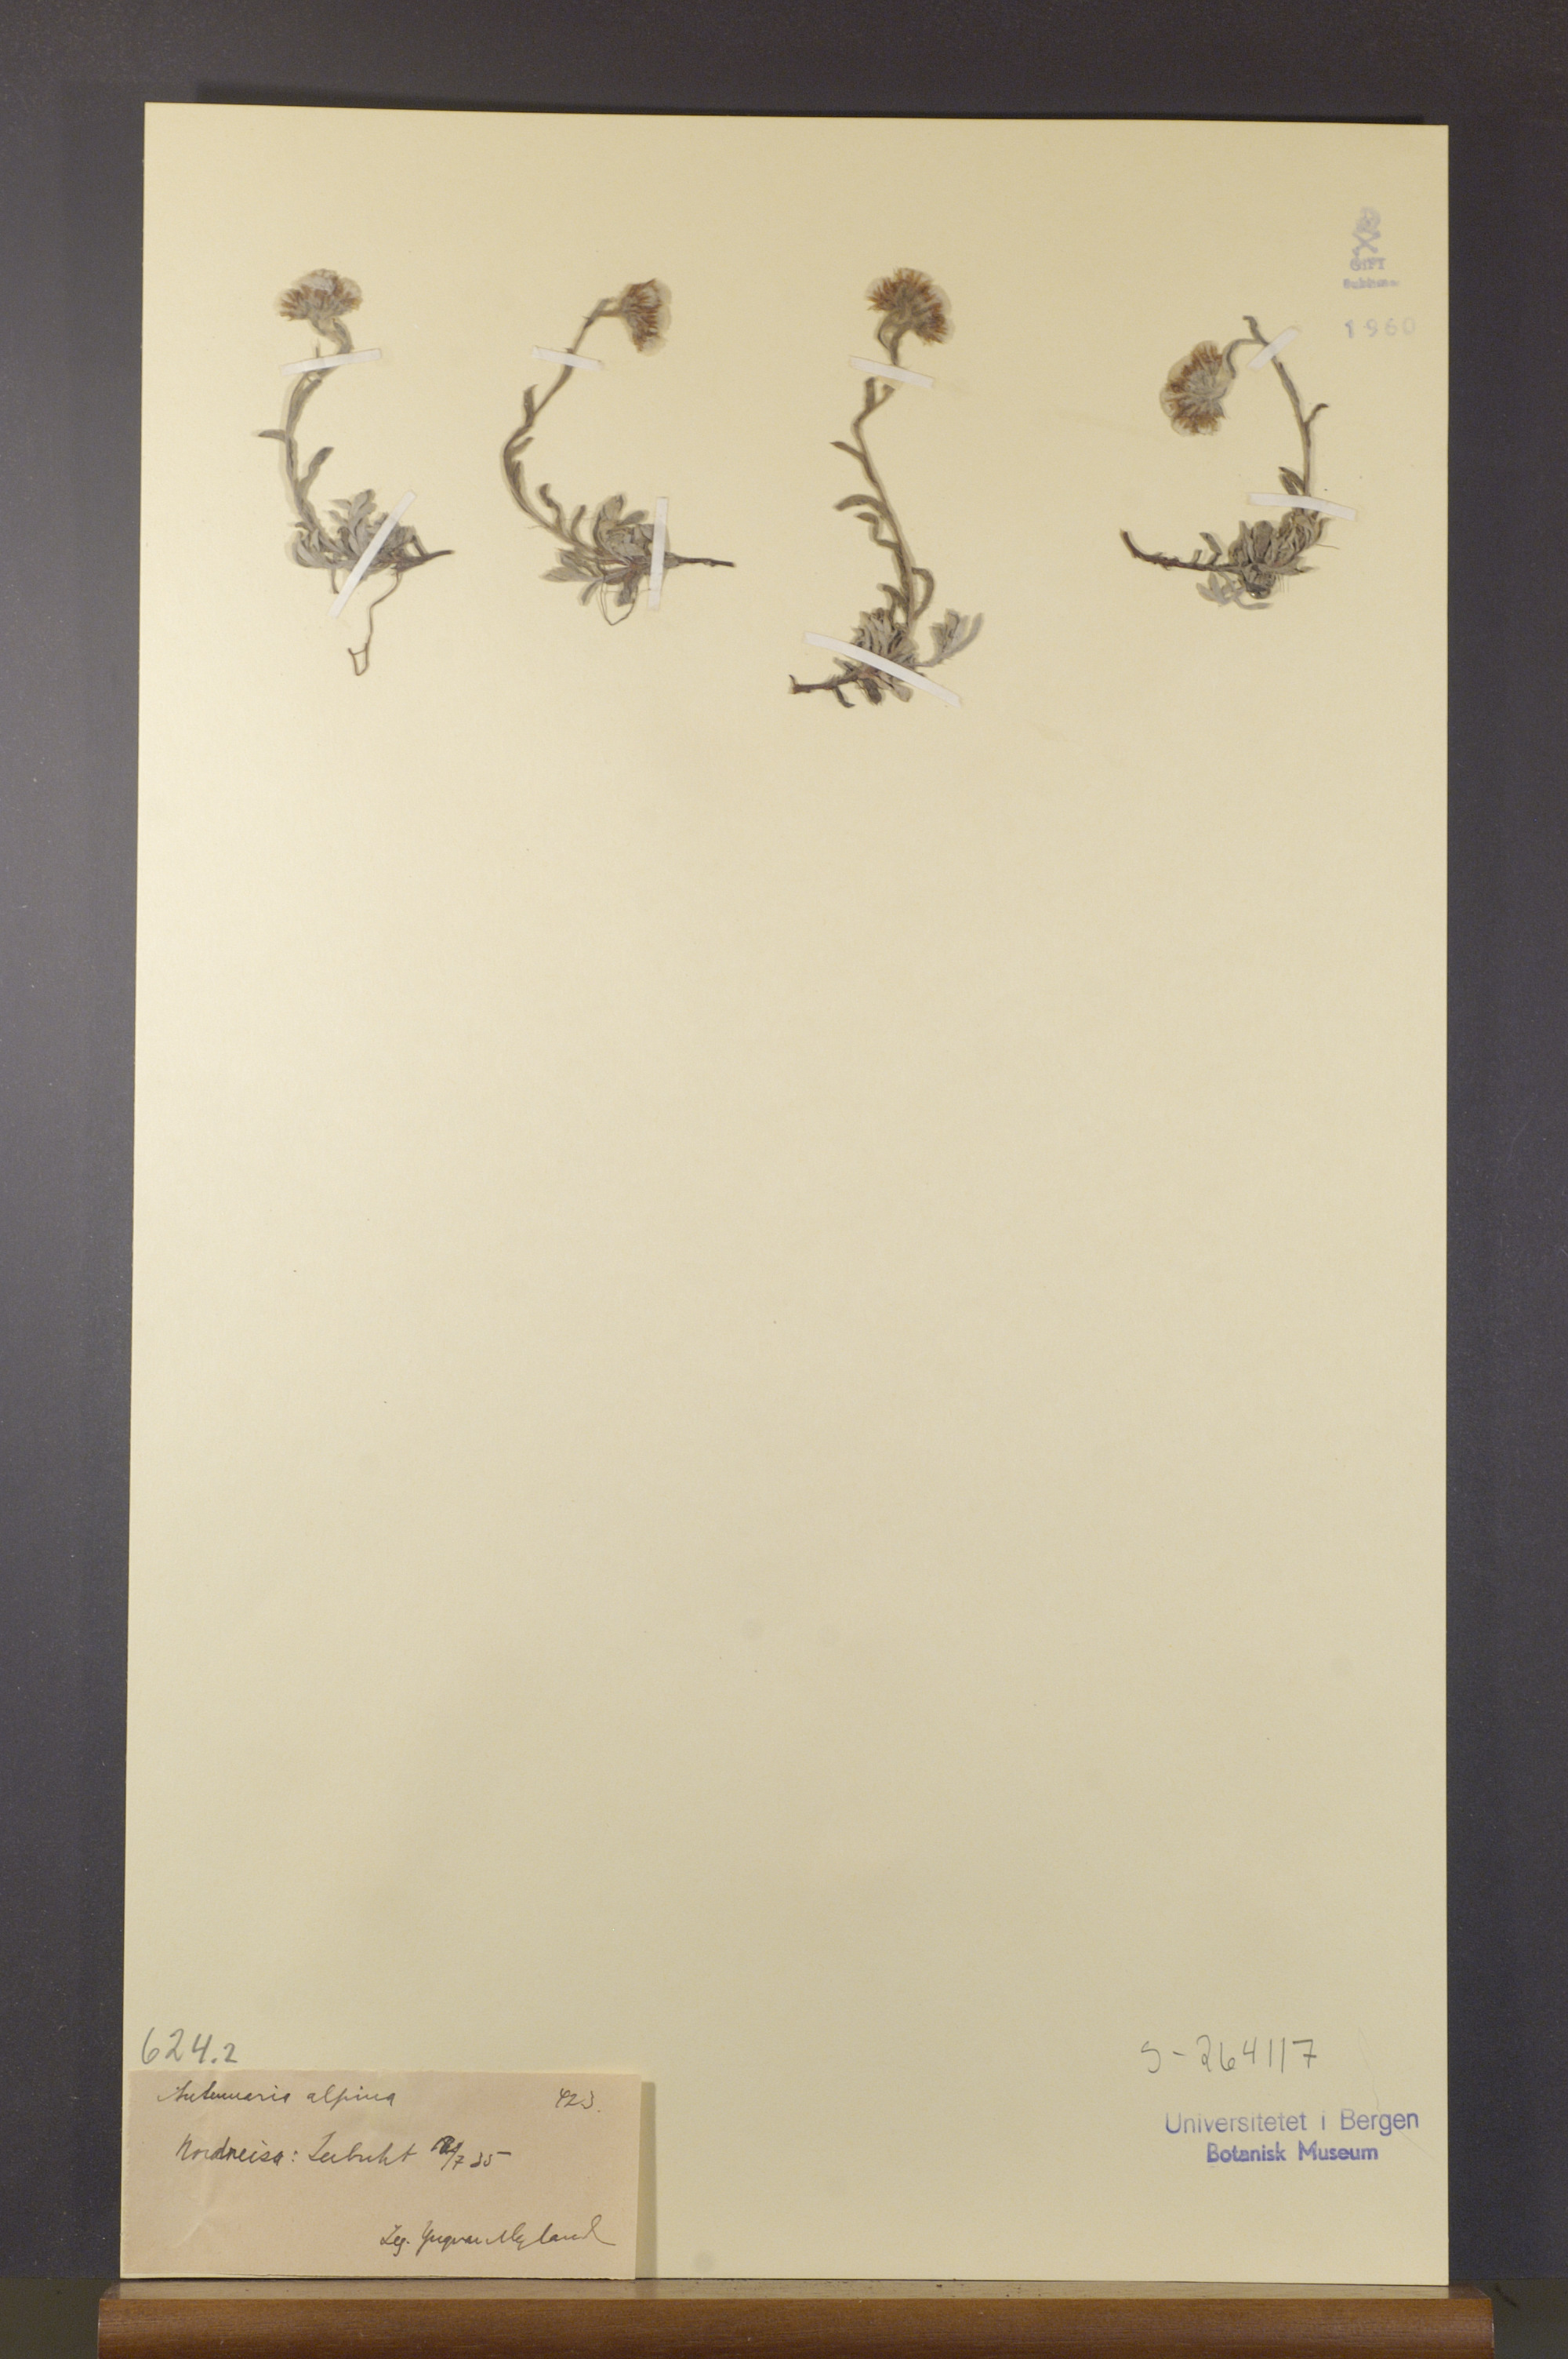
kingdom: Plantae
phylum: Tracheophyta
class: Magnoliopsida
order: Asterales
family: Asteraceae
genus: Antennaria
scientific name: Antennaria alpina
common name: Alpine pussytoes
